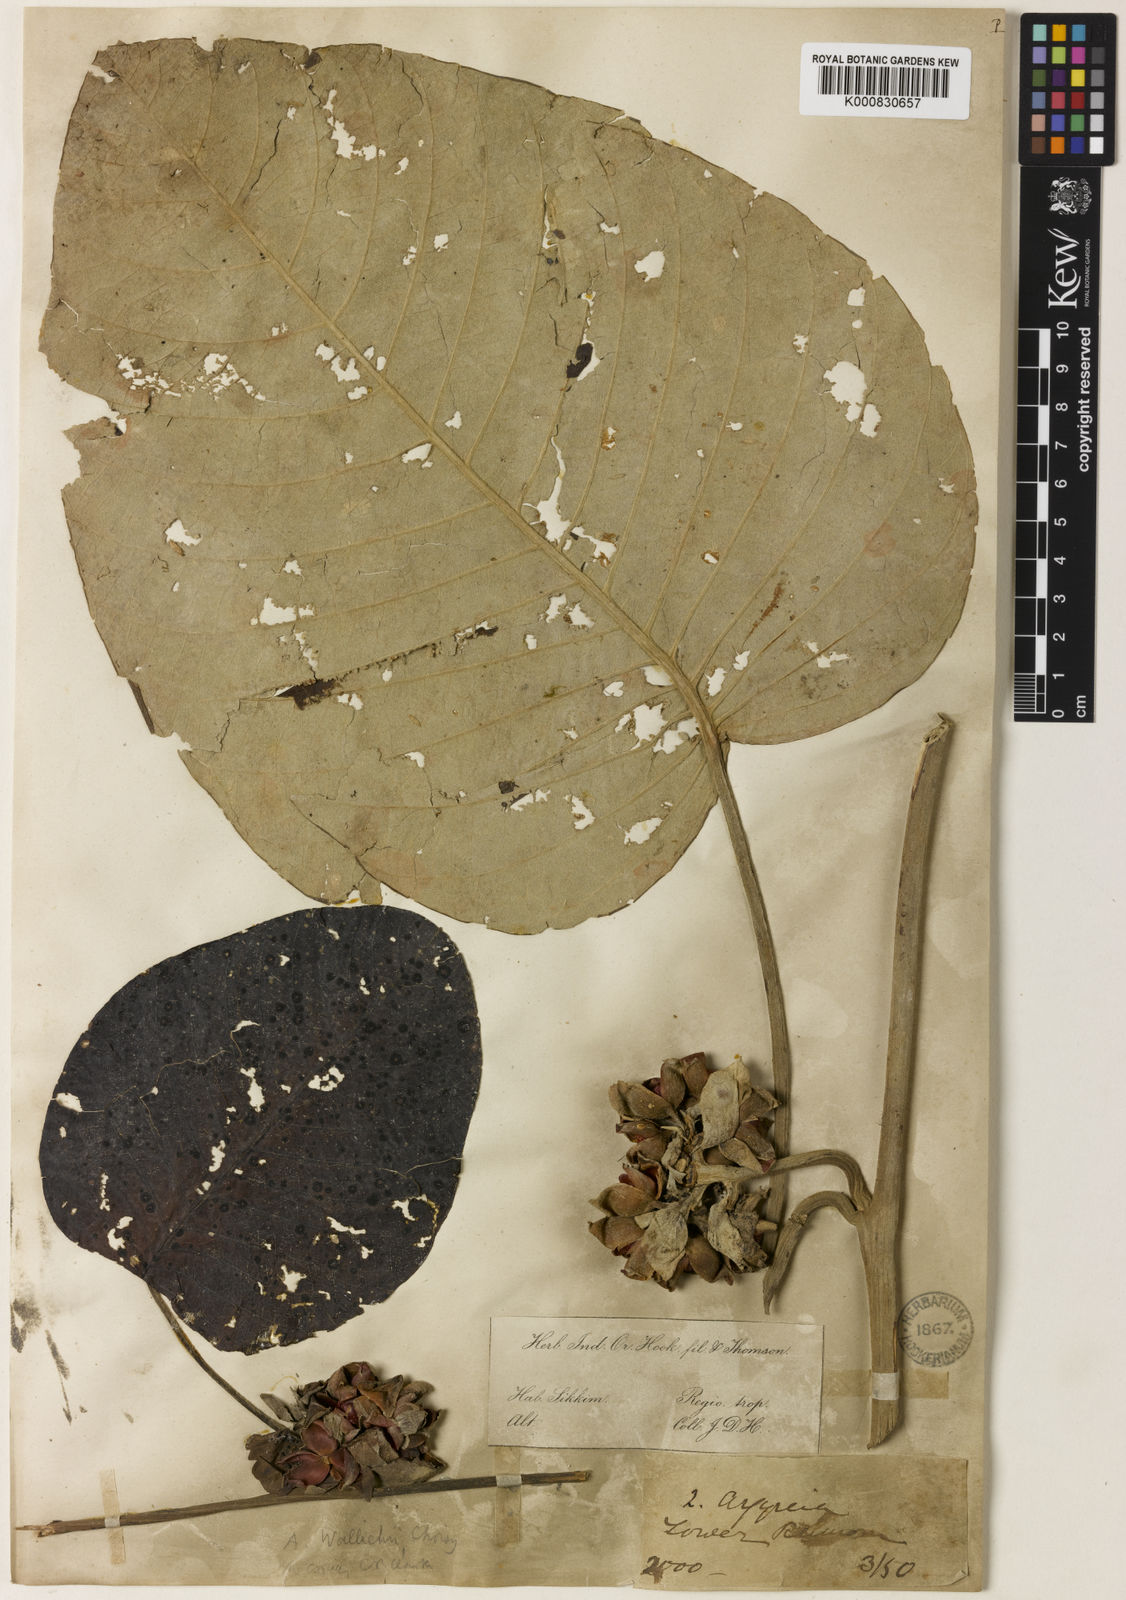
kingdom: Plantae
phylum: Tracheophyta
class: Magnoliopsida
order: Solanales
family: Convolvulaceae
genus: Argyreia
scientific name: Argyreia wallichii
